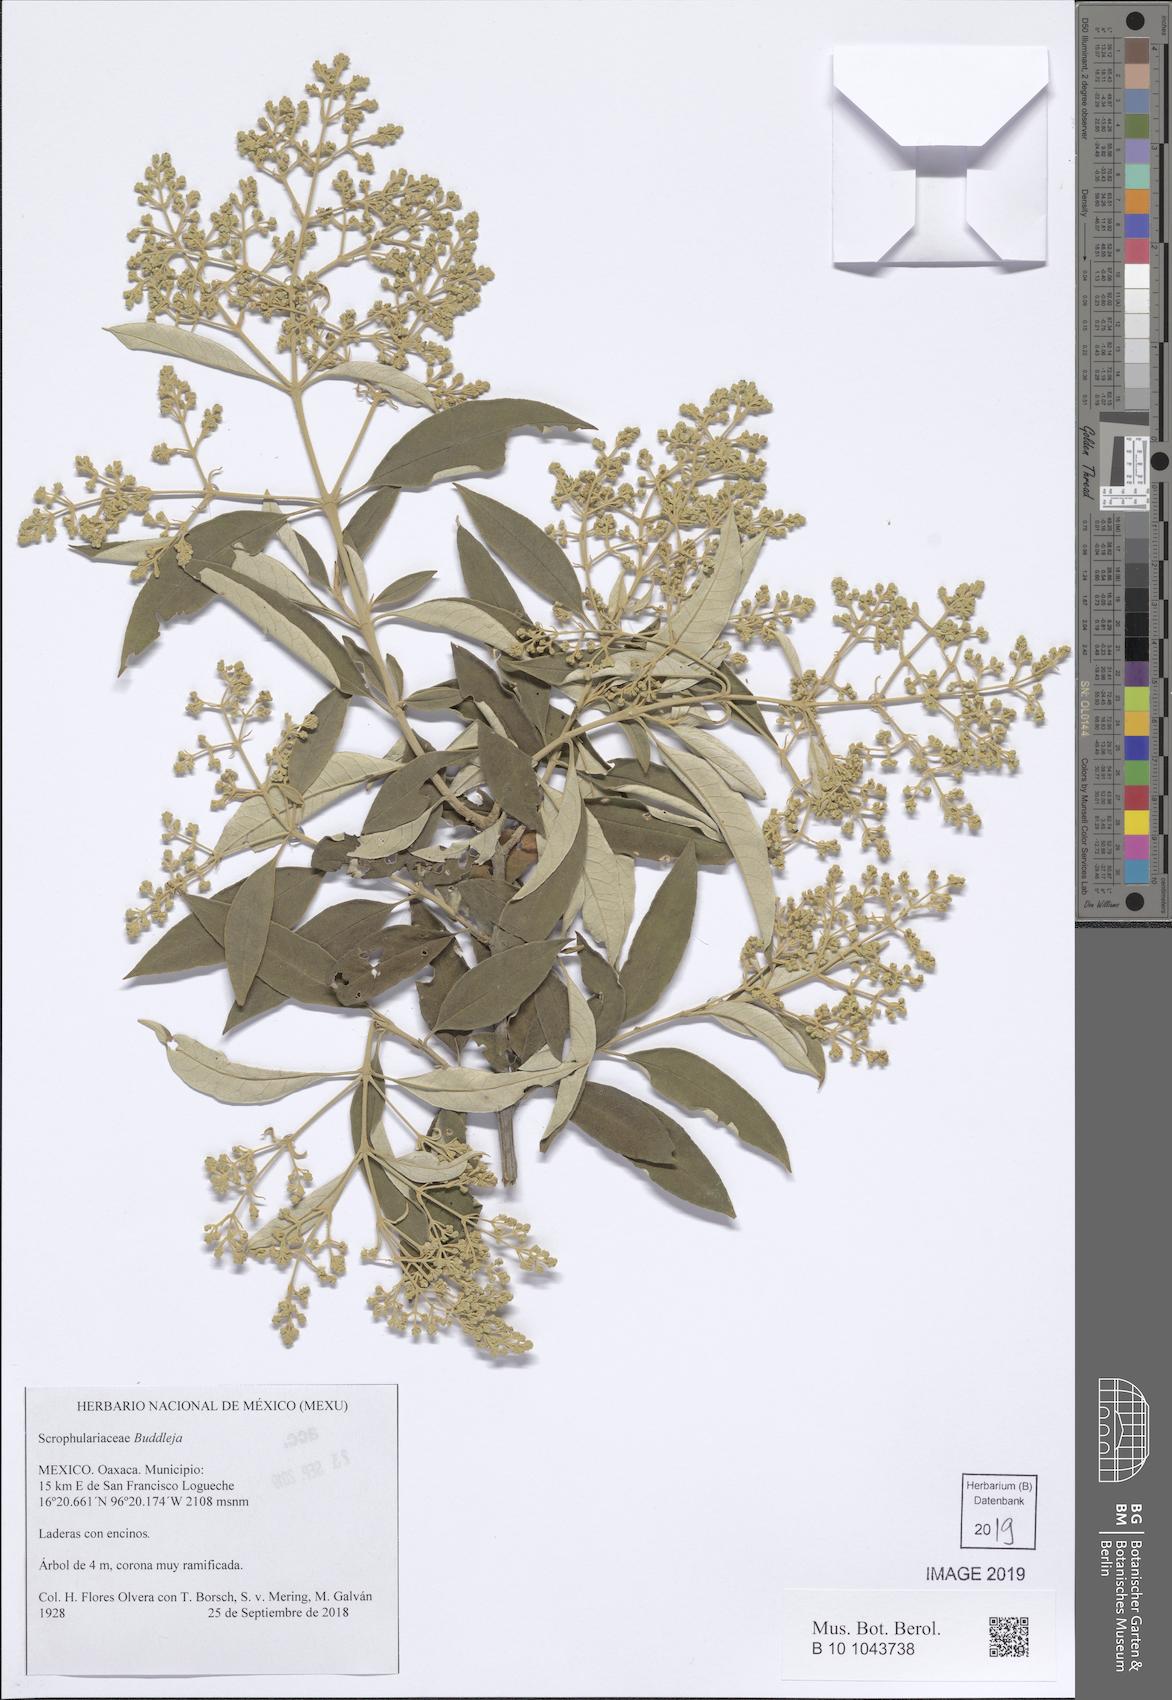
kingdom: Plantae
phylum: Tracheophyta
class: Magnoliopsida
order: Lamiales
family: Scrophulariaceae
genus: Buddleja
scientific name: Buddleja
